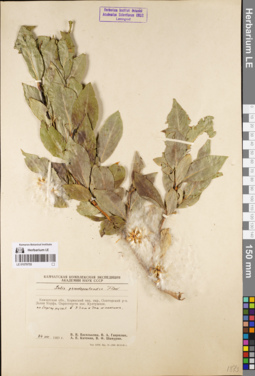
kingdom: Plantae
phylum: Tracheophyta
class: Magnoliopsida
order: Malpighiales
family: Salicaceae
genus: Salix
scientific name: Salix pseudopentandra
